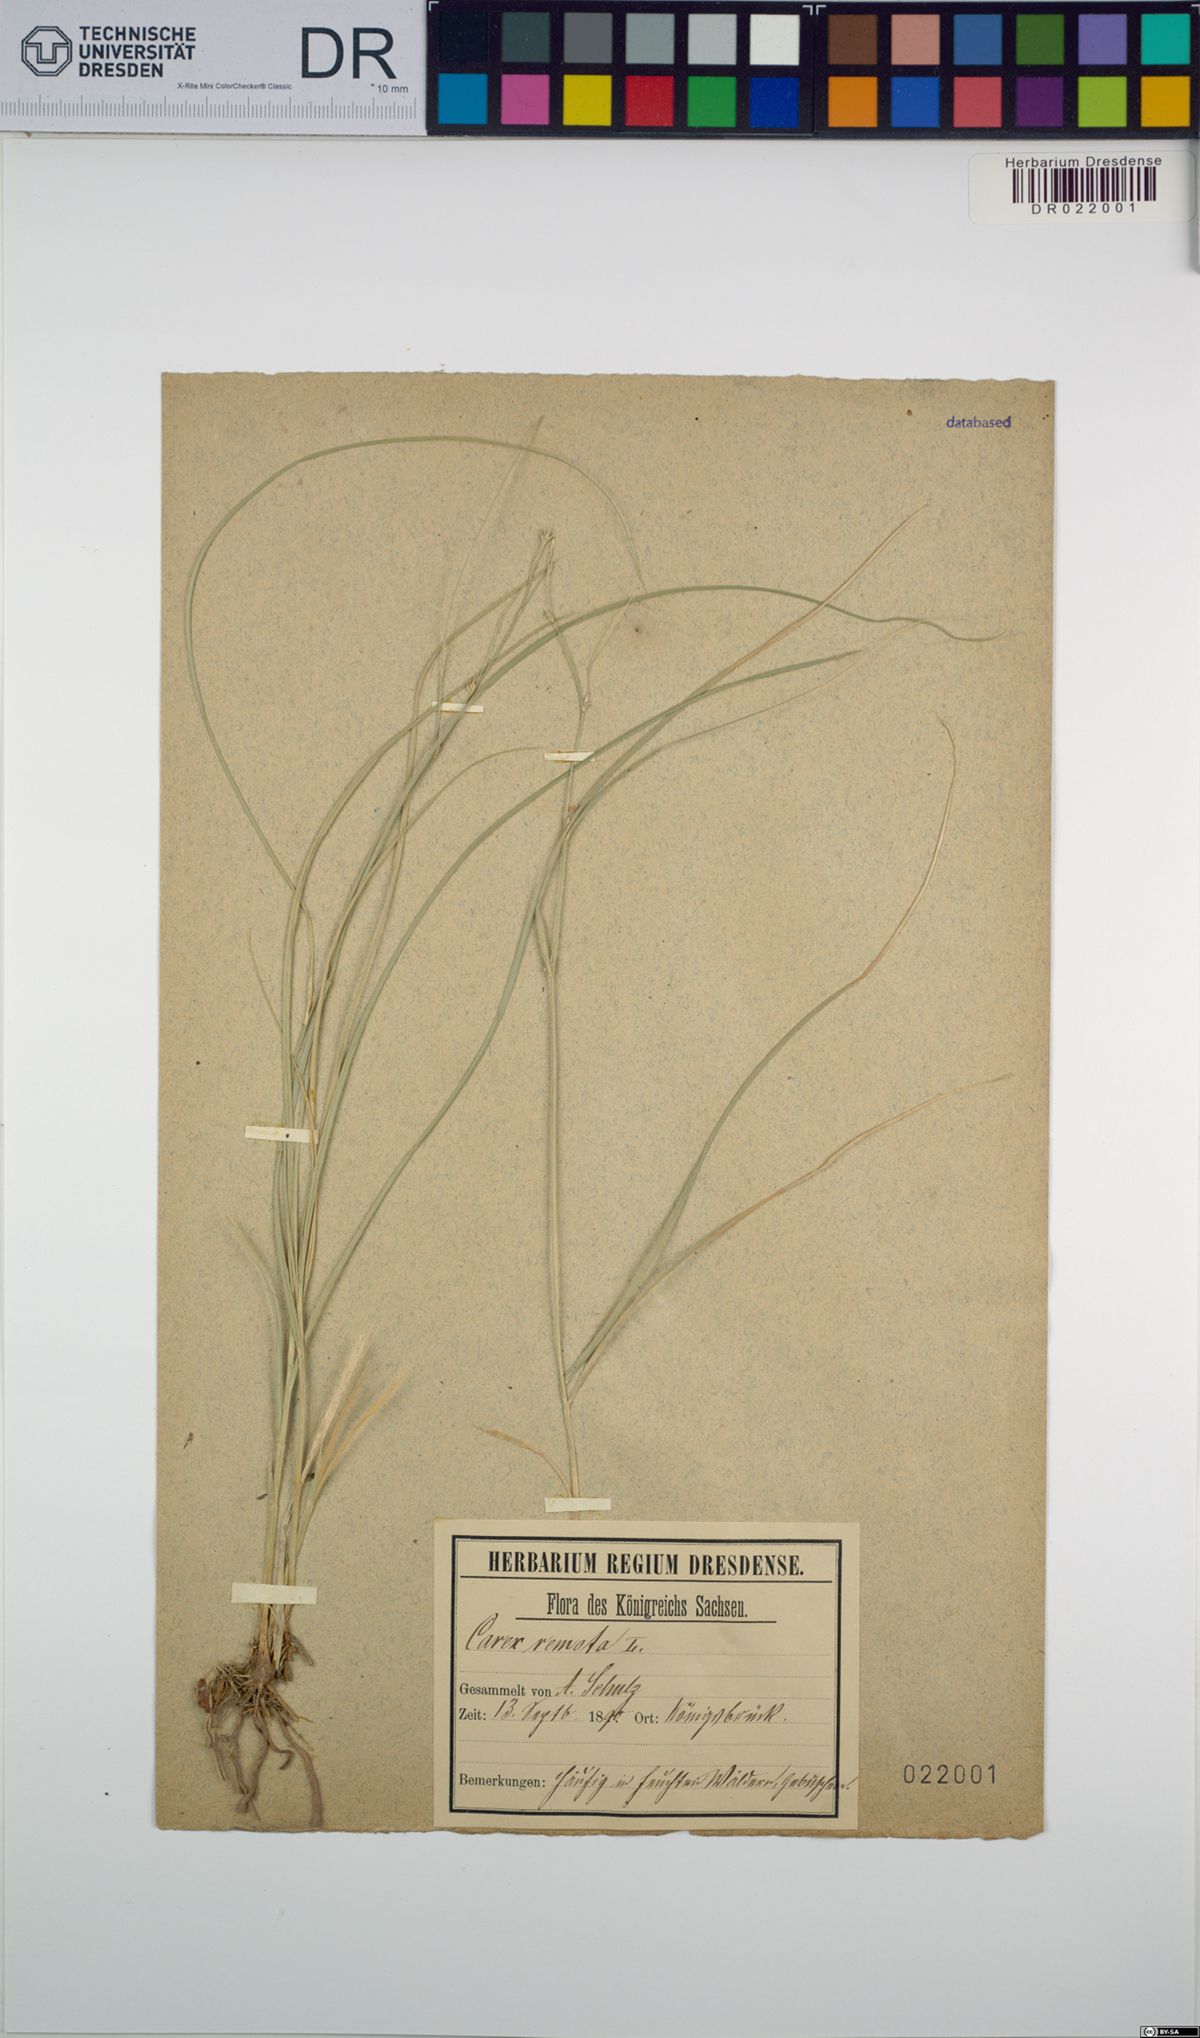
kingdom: Plantae
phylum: Tracheophyta
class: Liliopsida
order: Poales
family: Cyperaceae
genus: Carex
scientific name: Carex remota
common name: Remote sedge
